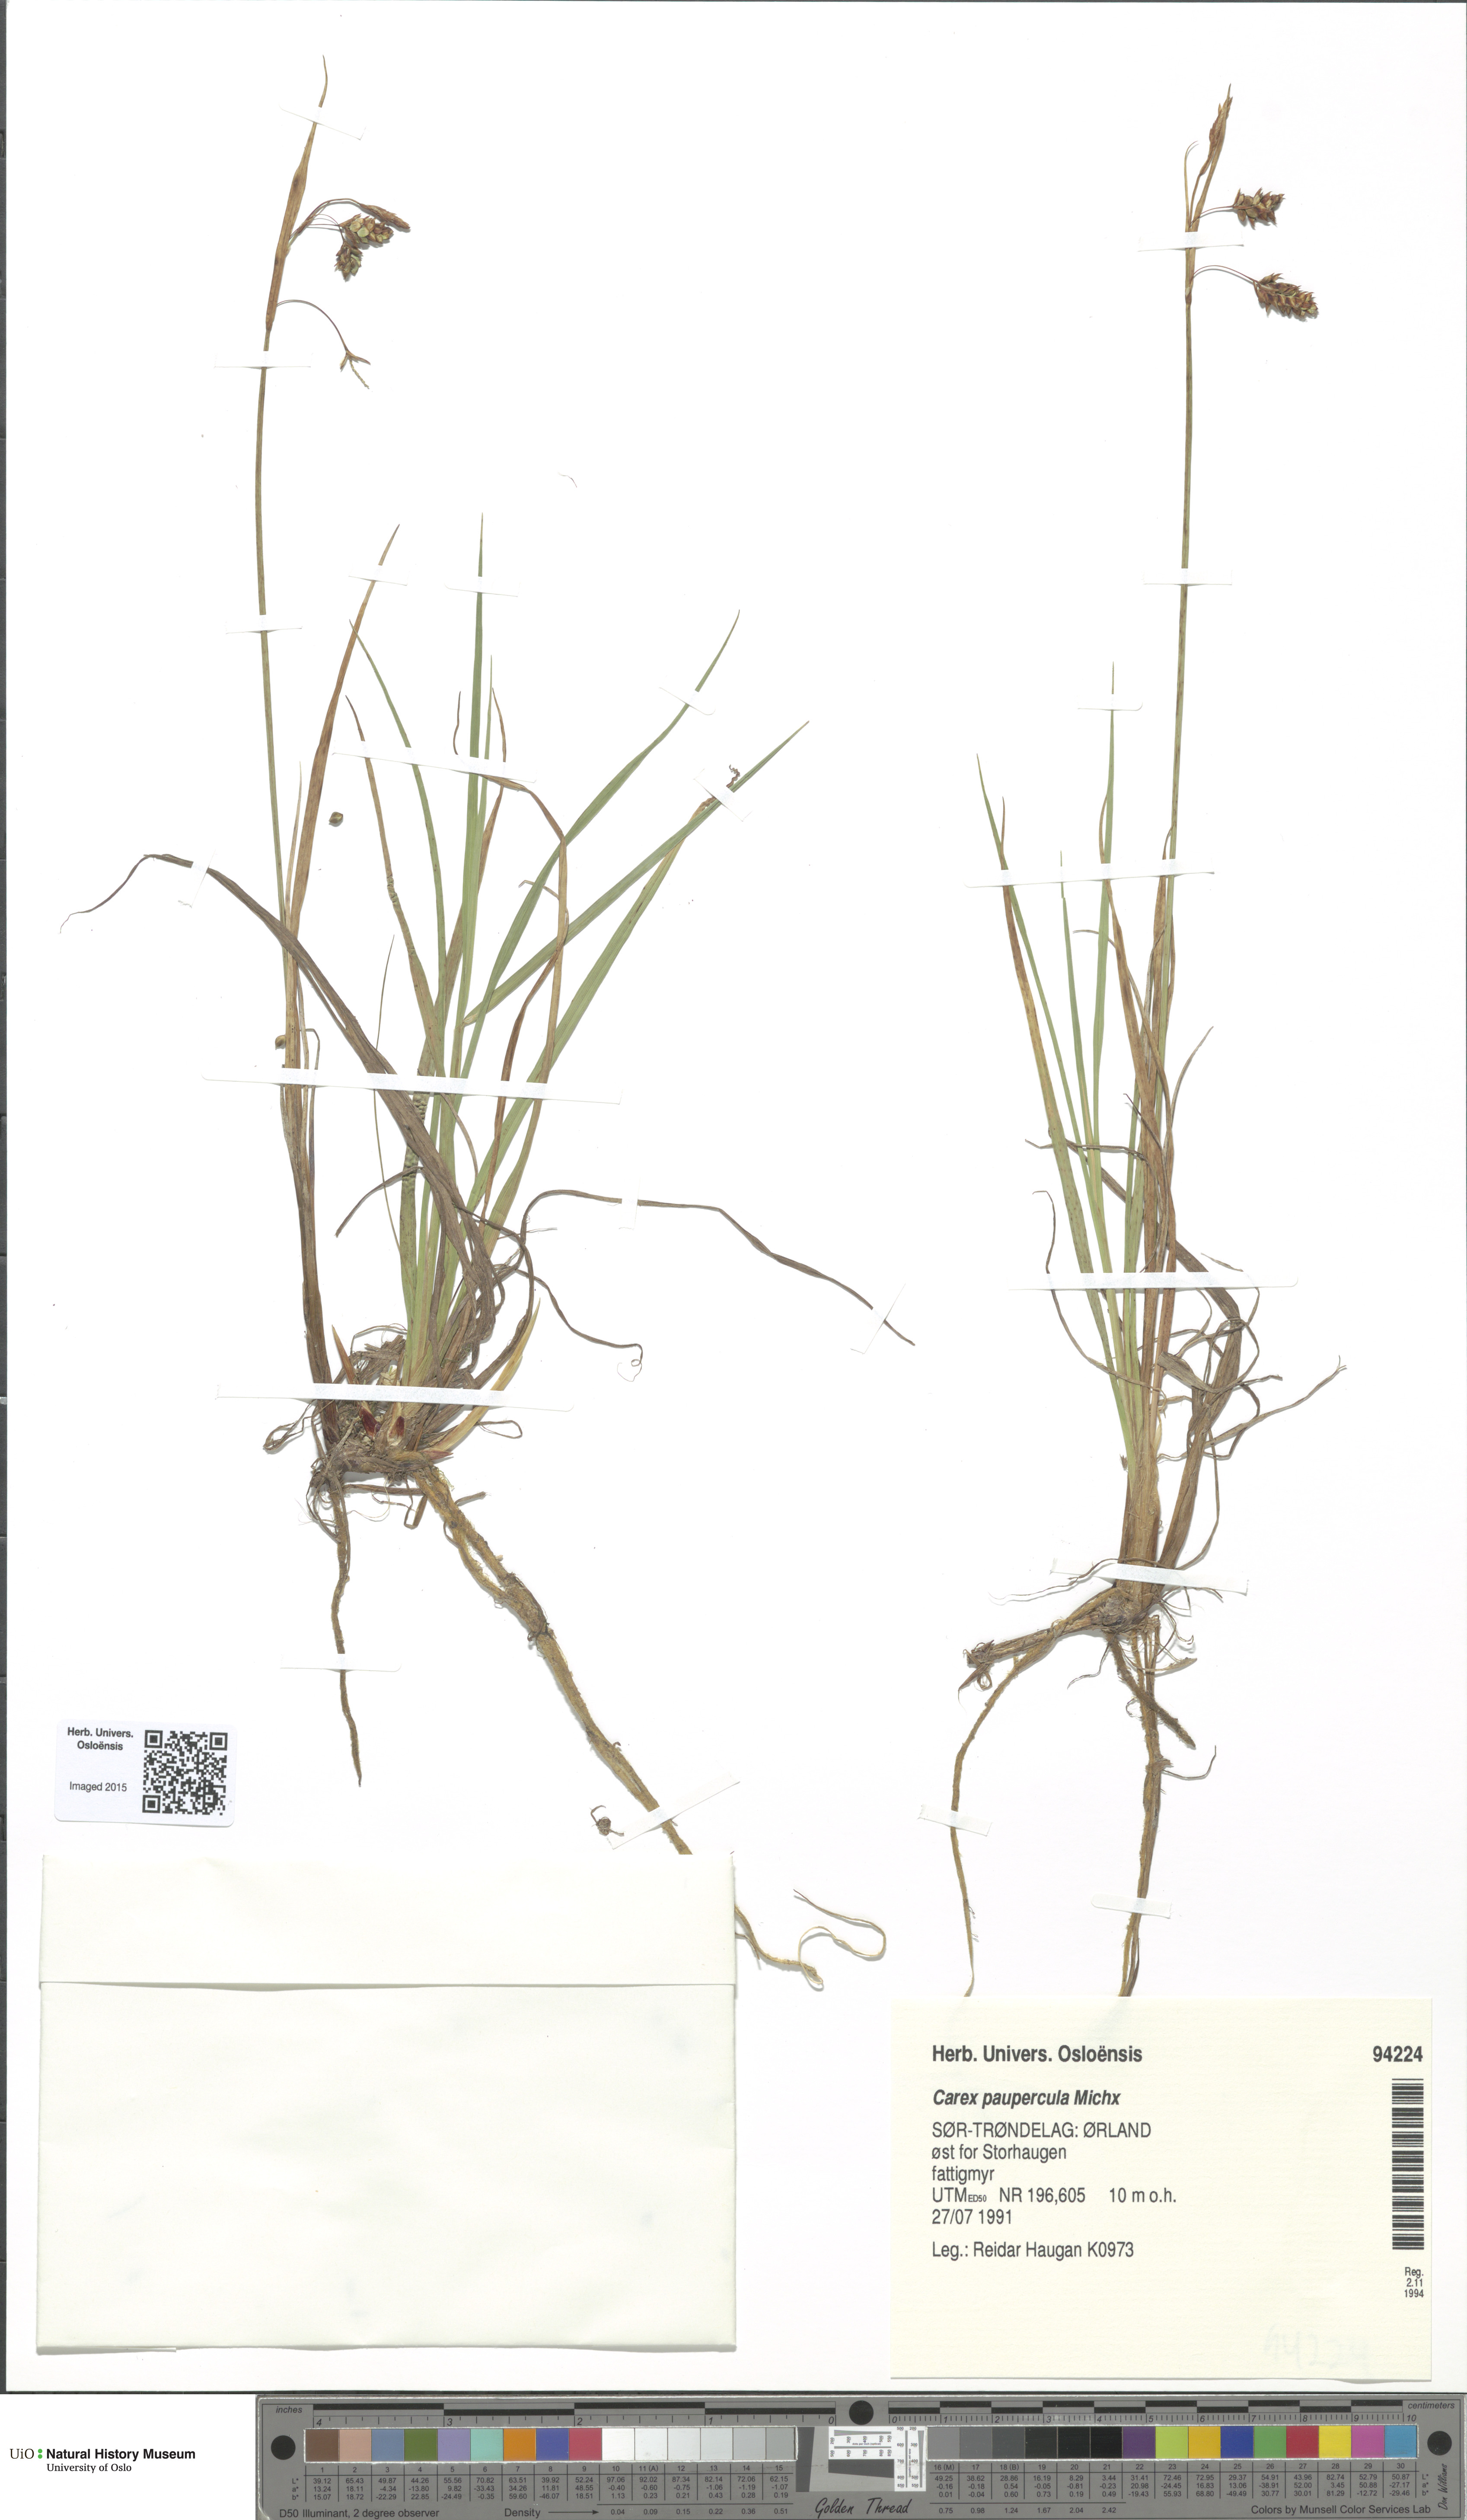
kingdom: Plantae
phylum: Tracheophyta
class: Liliopsida
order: Poales
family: Cyperaceae
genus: Carex
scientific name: Carex magellanica
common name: Bog sedge
